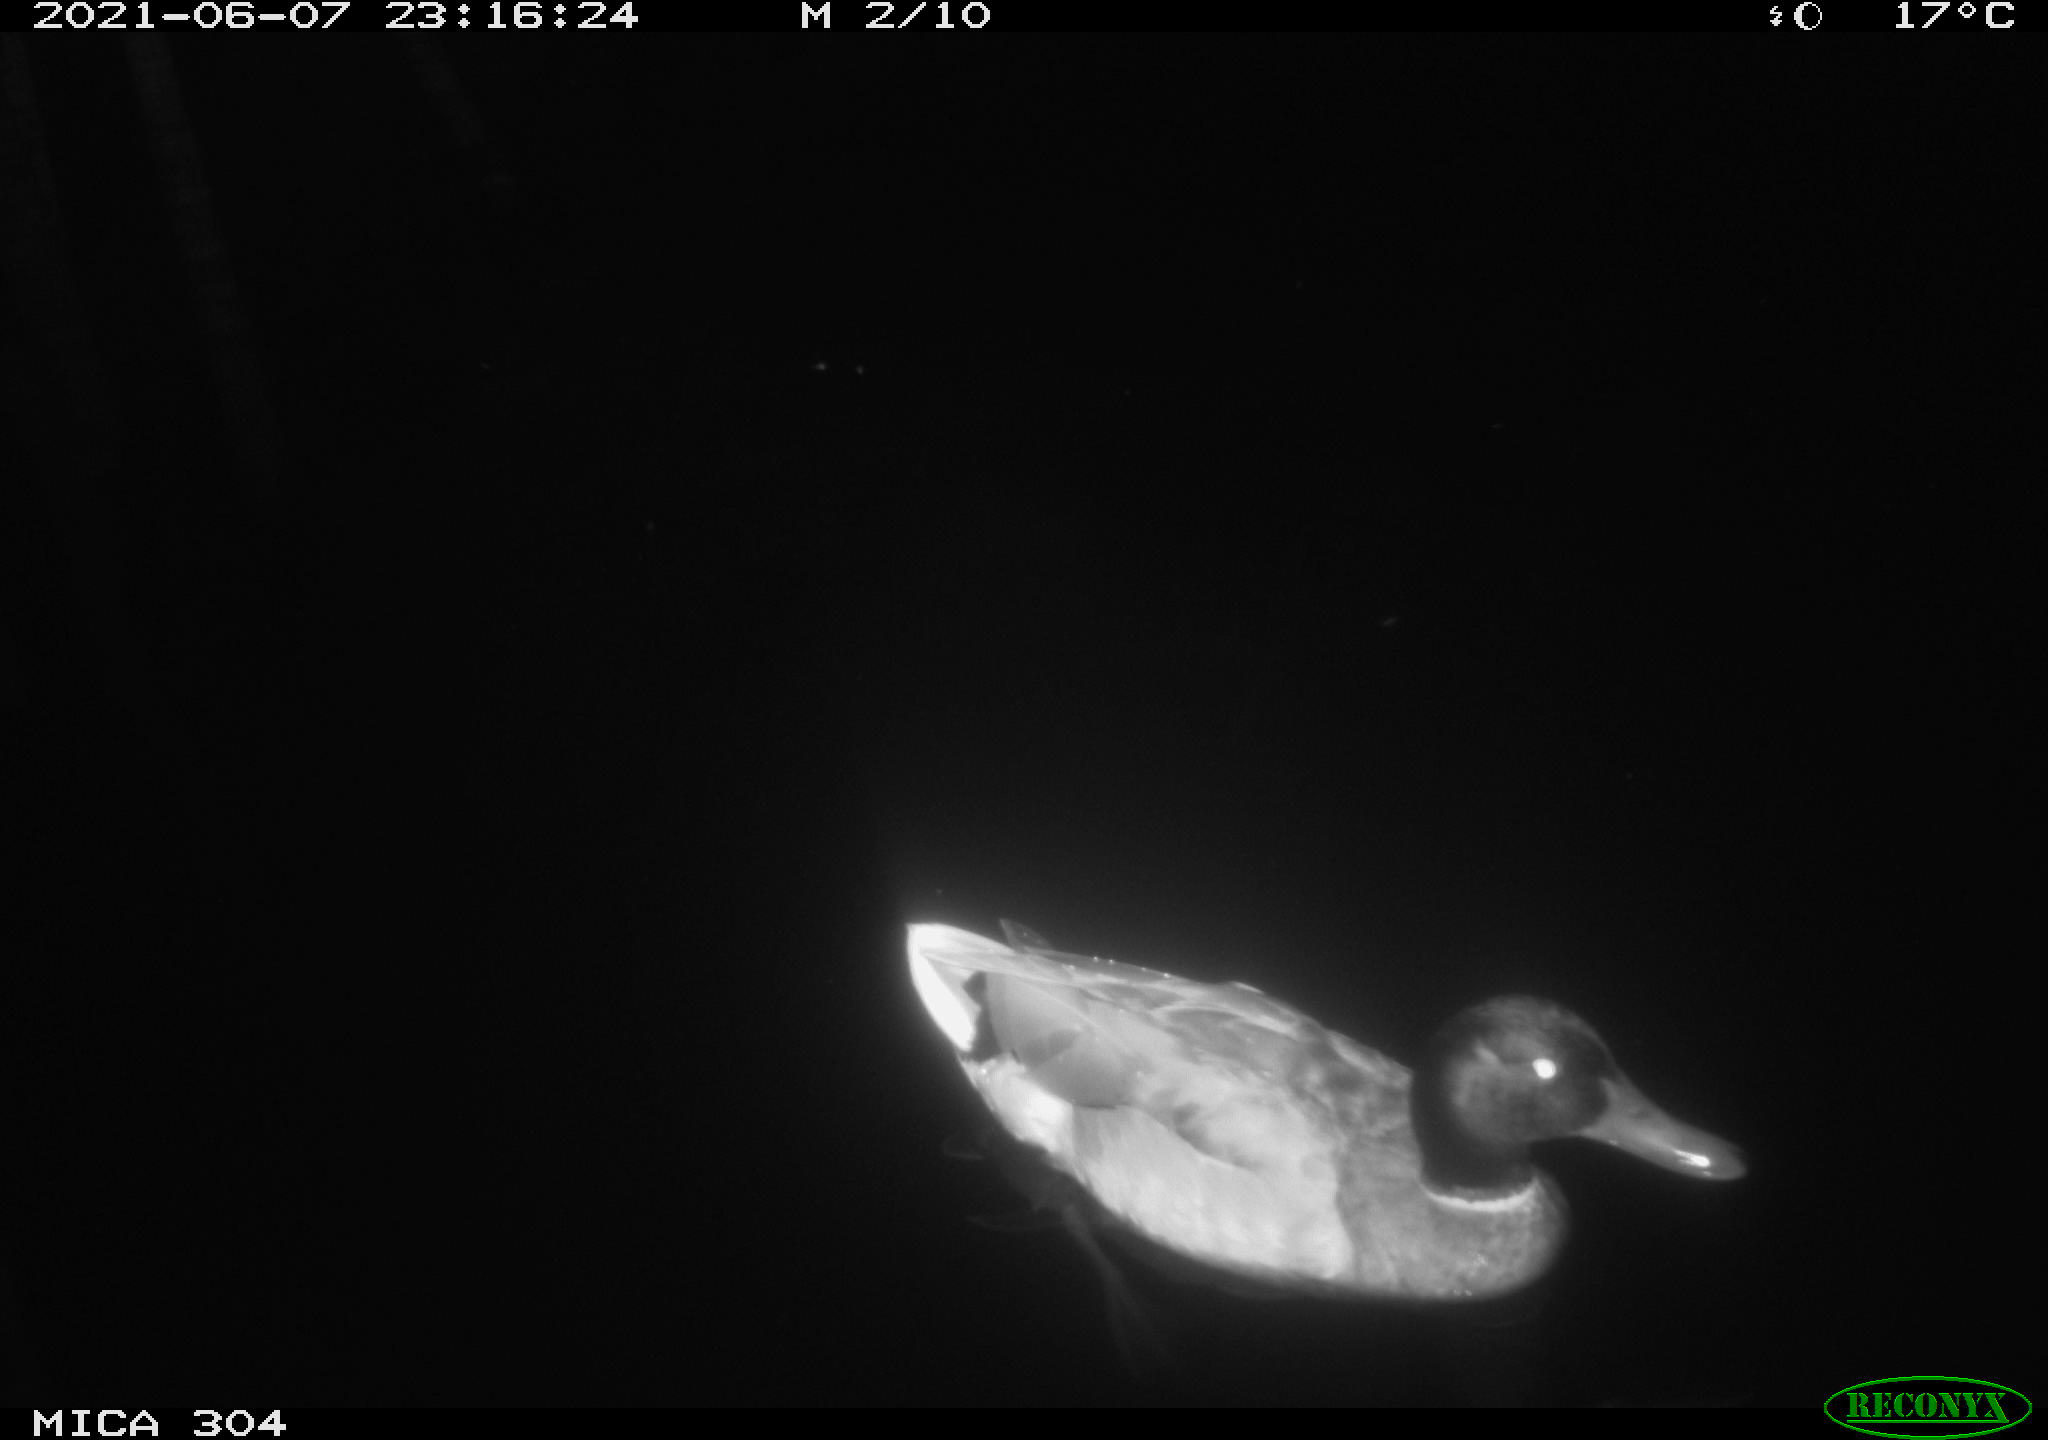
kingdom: Animalia
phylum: Chordata
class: Aves
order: Anseriformes
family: Anatidae
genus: Anas
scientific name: Anas platyrhynchos
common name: Mallard
